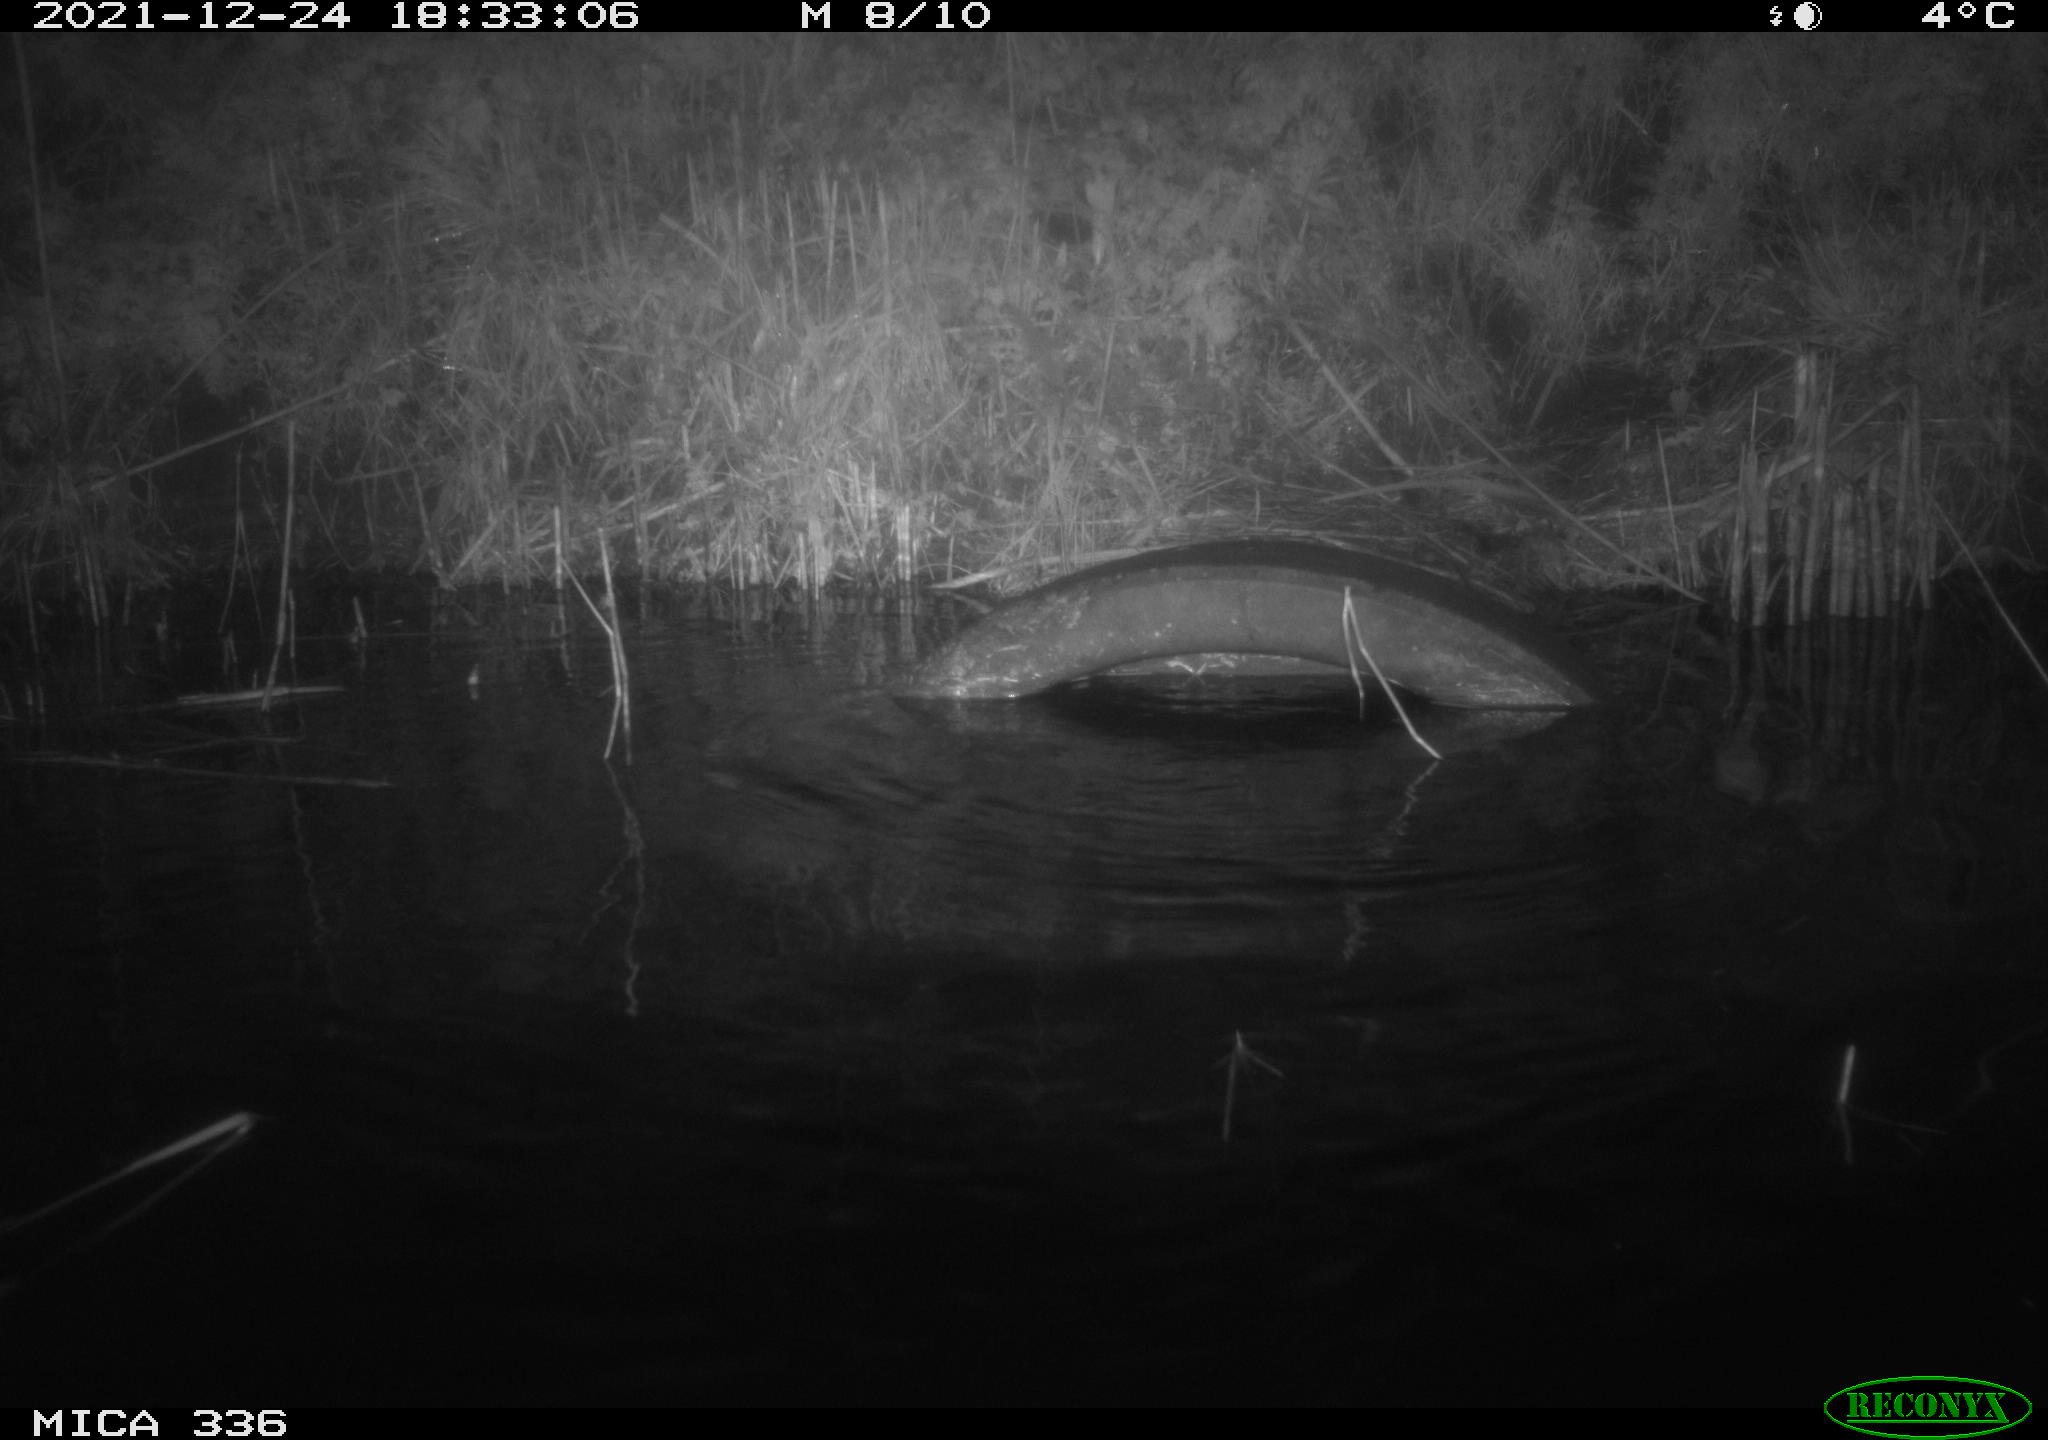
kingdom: Animalia
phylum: Chordata
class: Mammalia
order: Rodentia
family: Muridae
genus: Rattus
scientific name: Rattus norvegicus
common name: Brown rat
